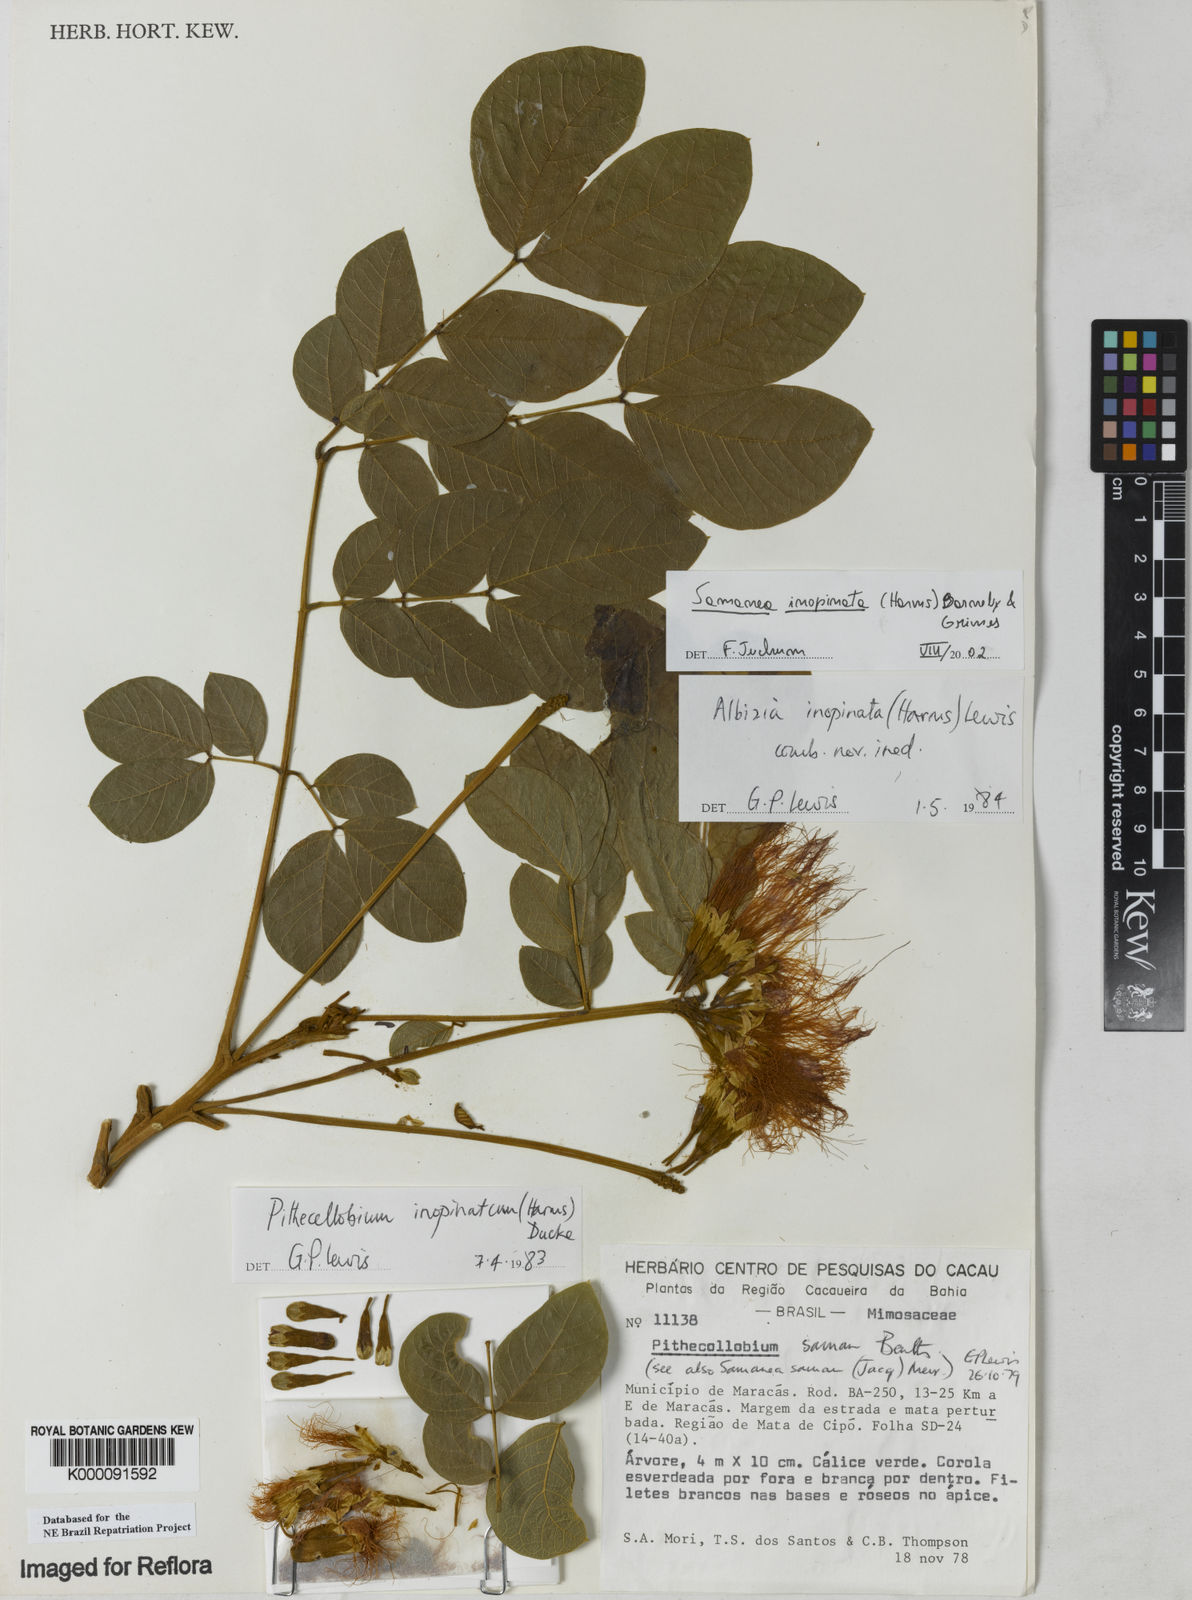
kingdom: Plantae
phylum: Tracheophyta
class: Magnoliopsida
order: Fabales
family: Fabaceae
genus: Samanea
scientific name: Samanea inopinata
